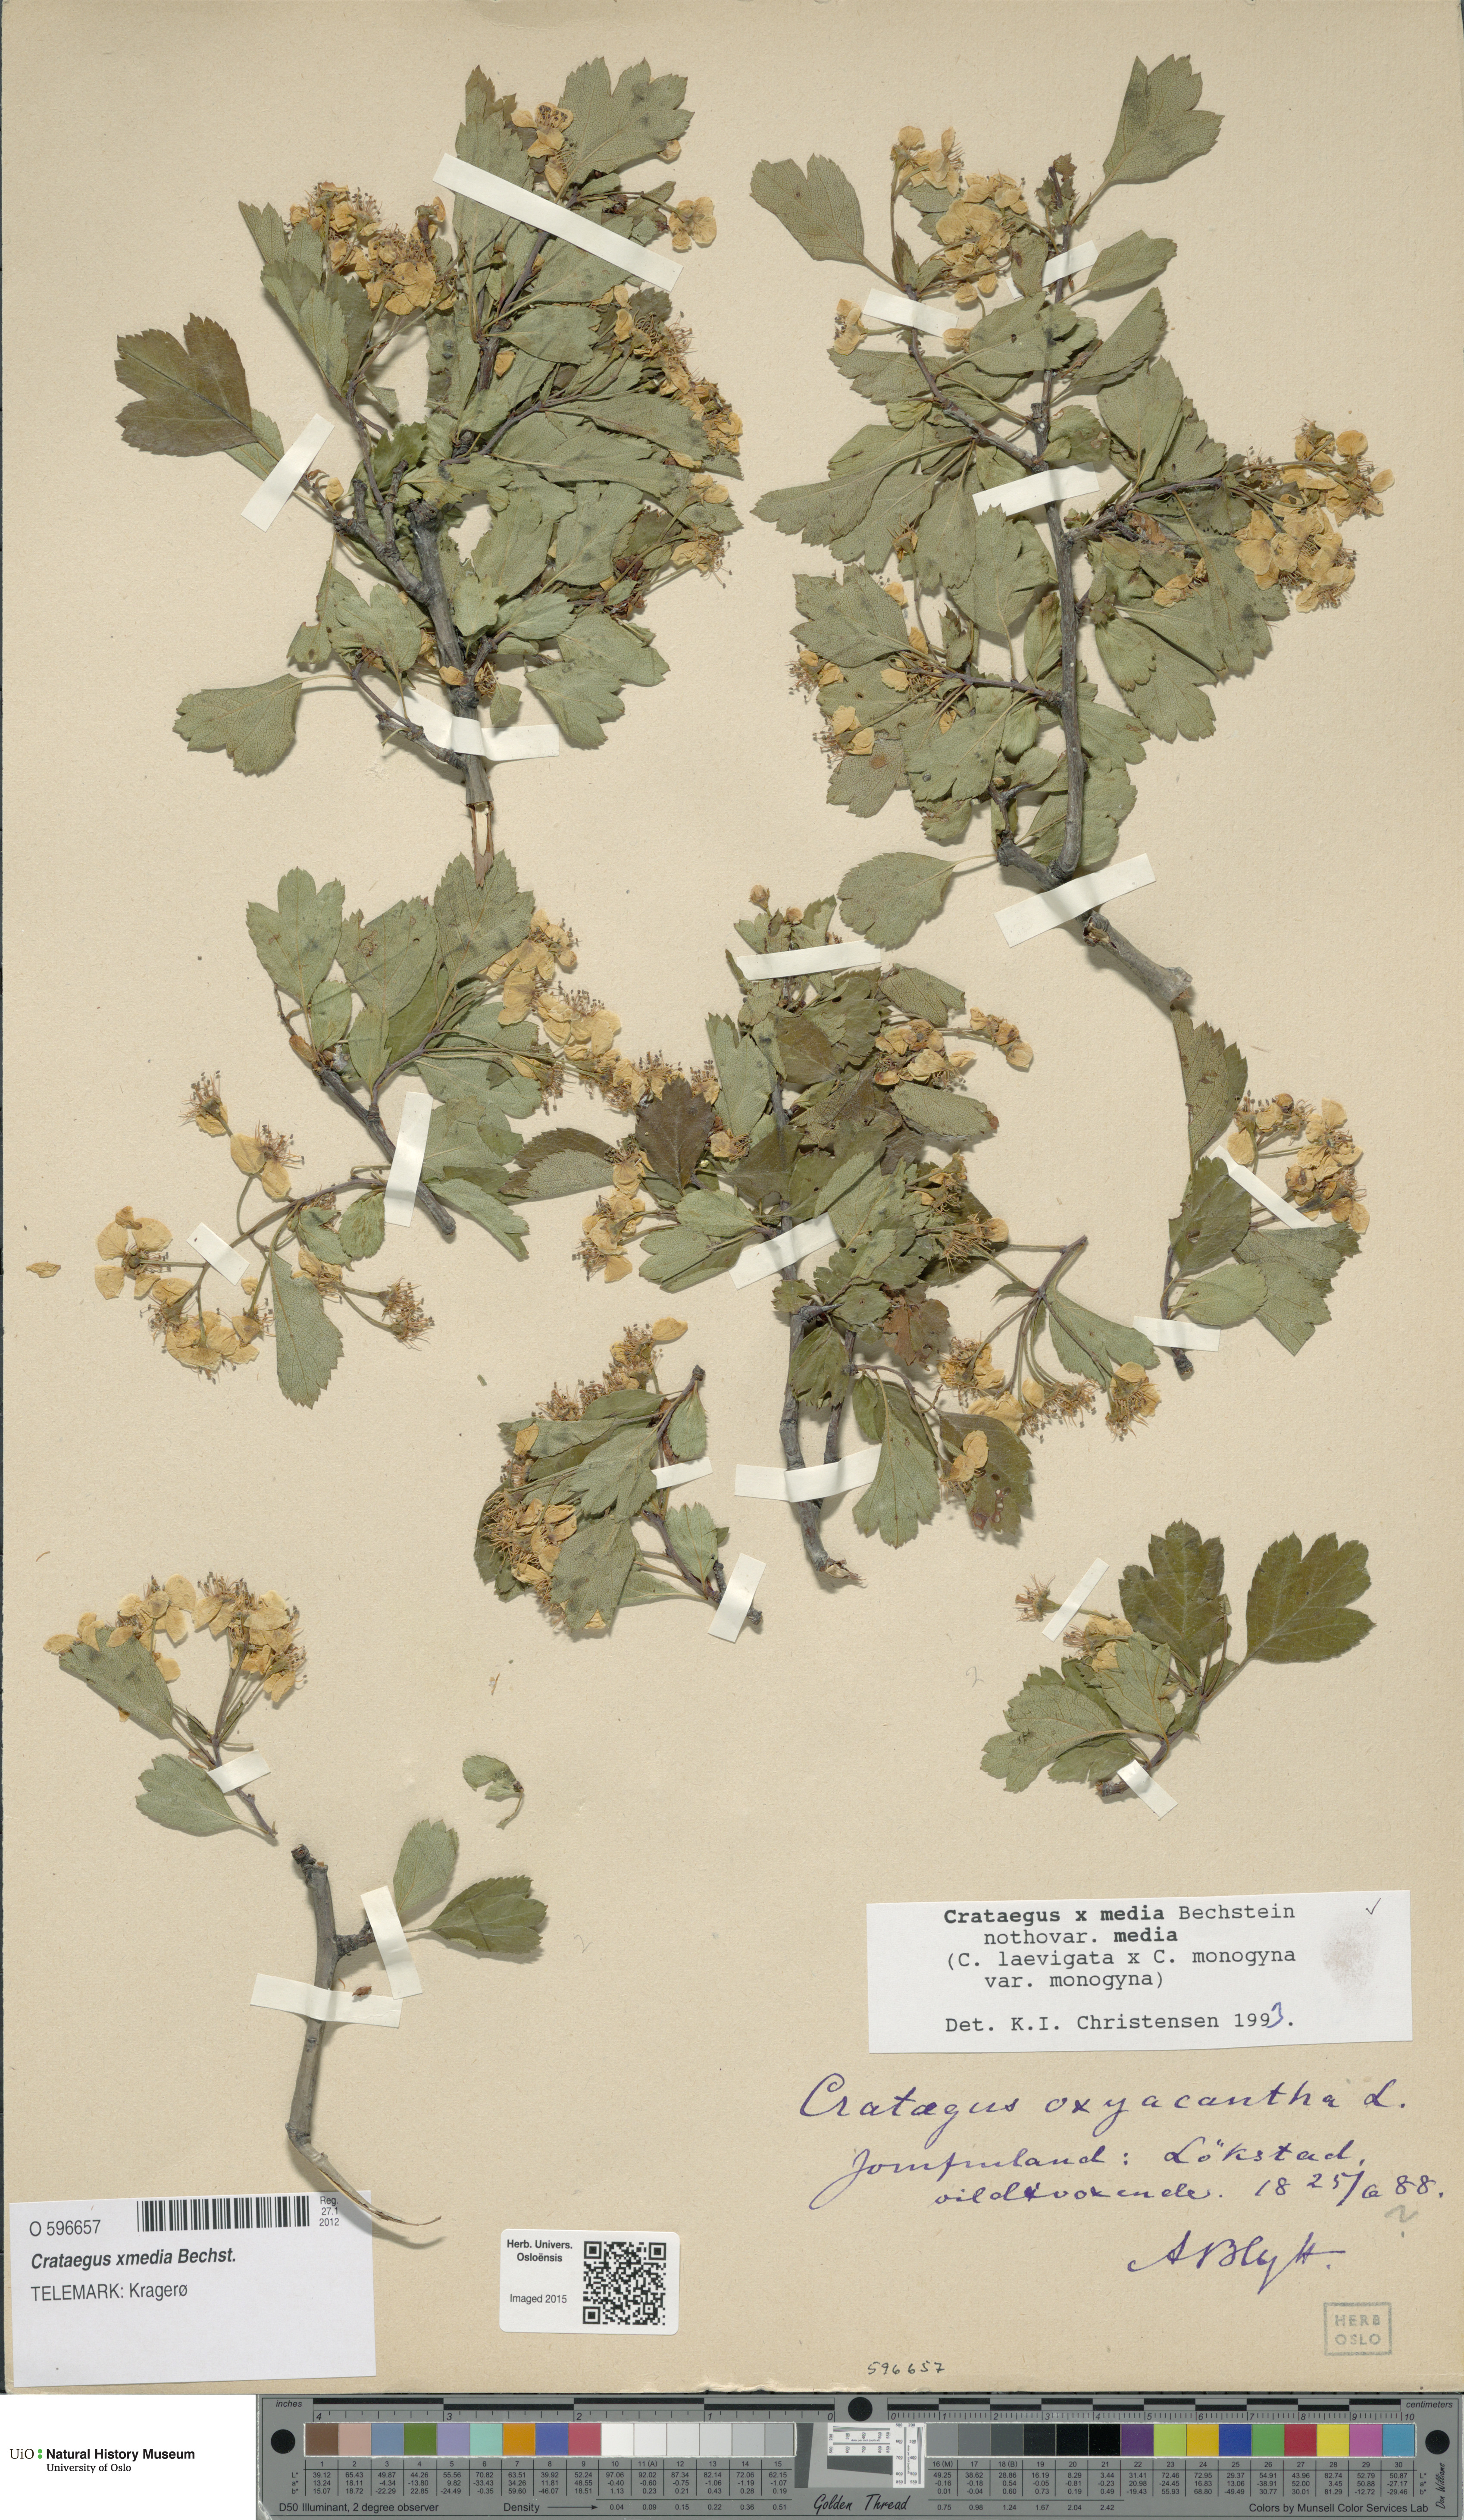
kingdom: Plantae
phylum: Tracheophyta
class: Magnoliopsida
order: Rosales
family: Rosaceae
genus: Crataegus
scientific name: Crataegus media
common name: Intermediate hawthorn
